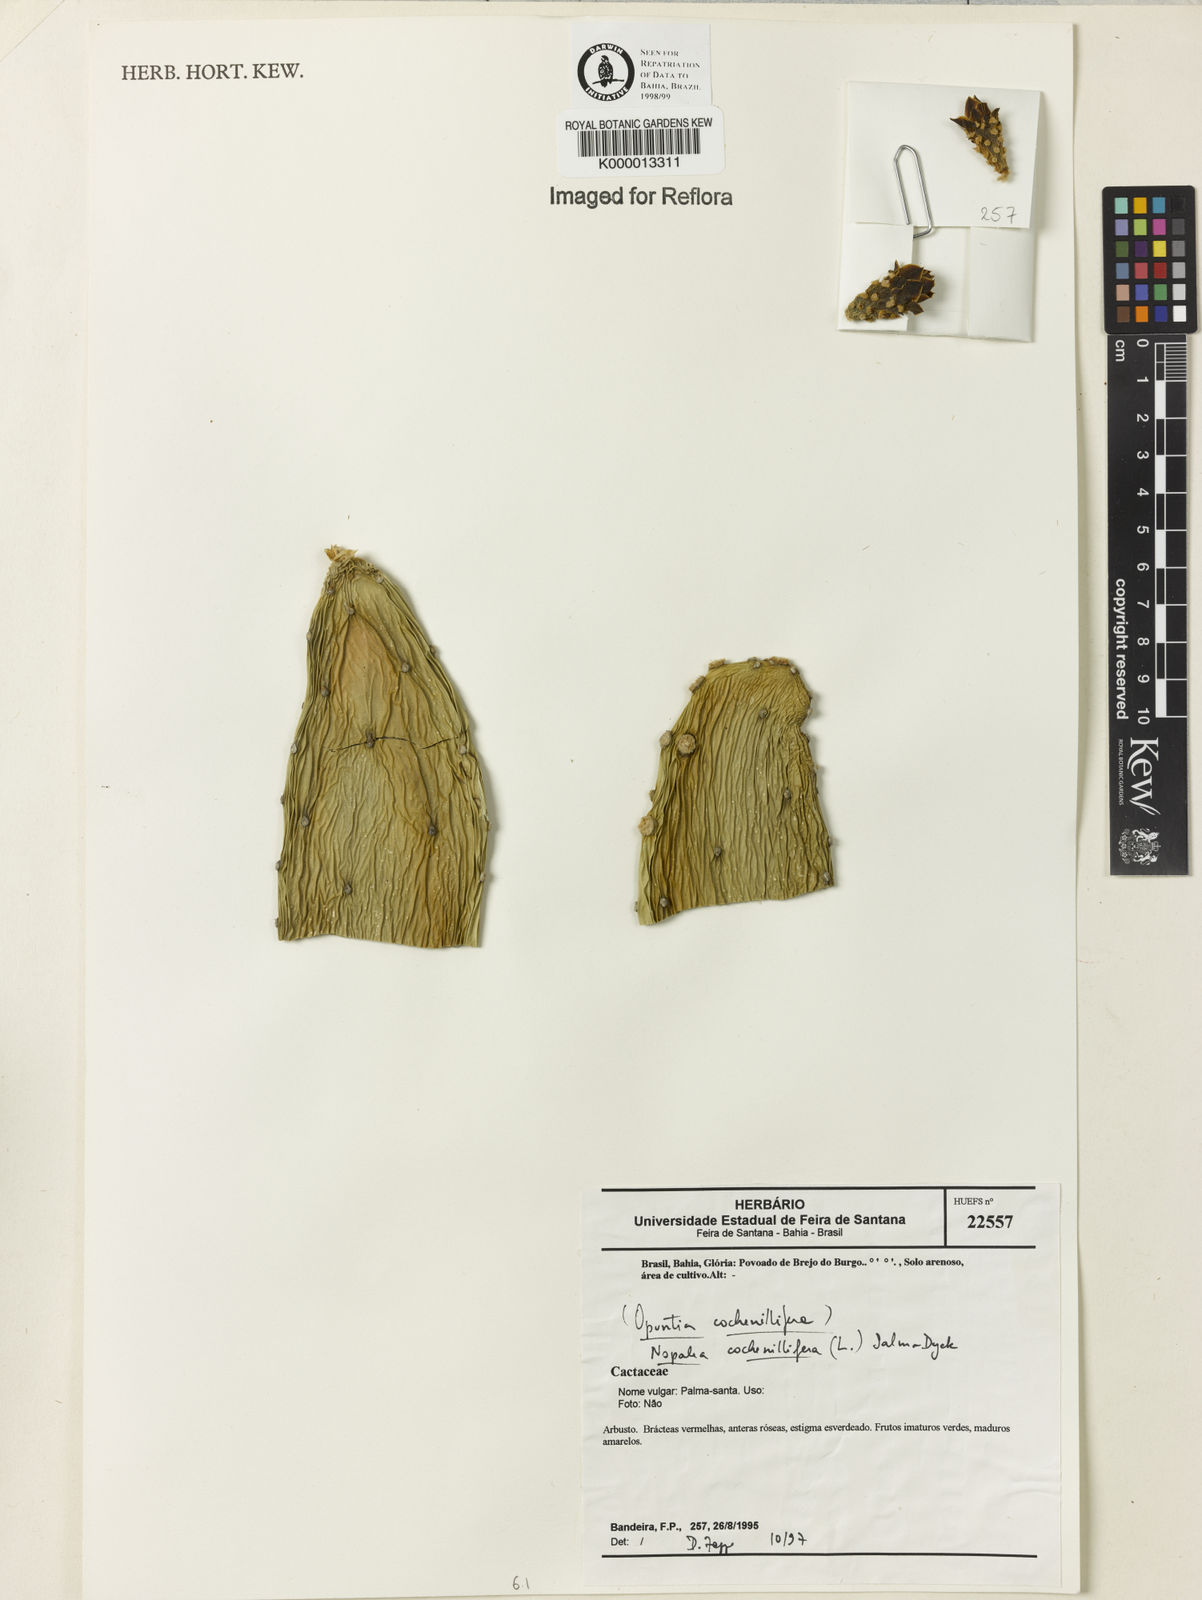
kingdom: Plantae
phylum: Tracheophyta
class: Magnoliopsida
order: Caryophyllales
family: Cactaceae
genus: Opuntia
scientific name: Opuntia cochenillifera
